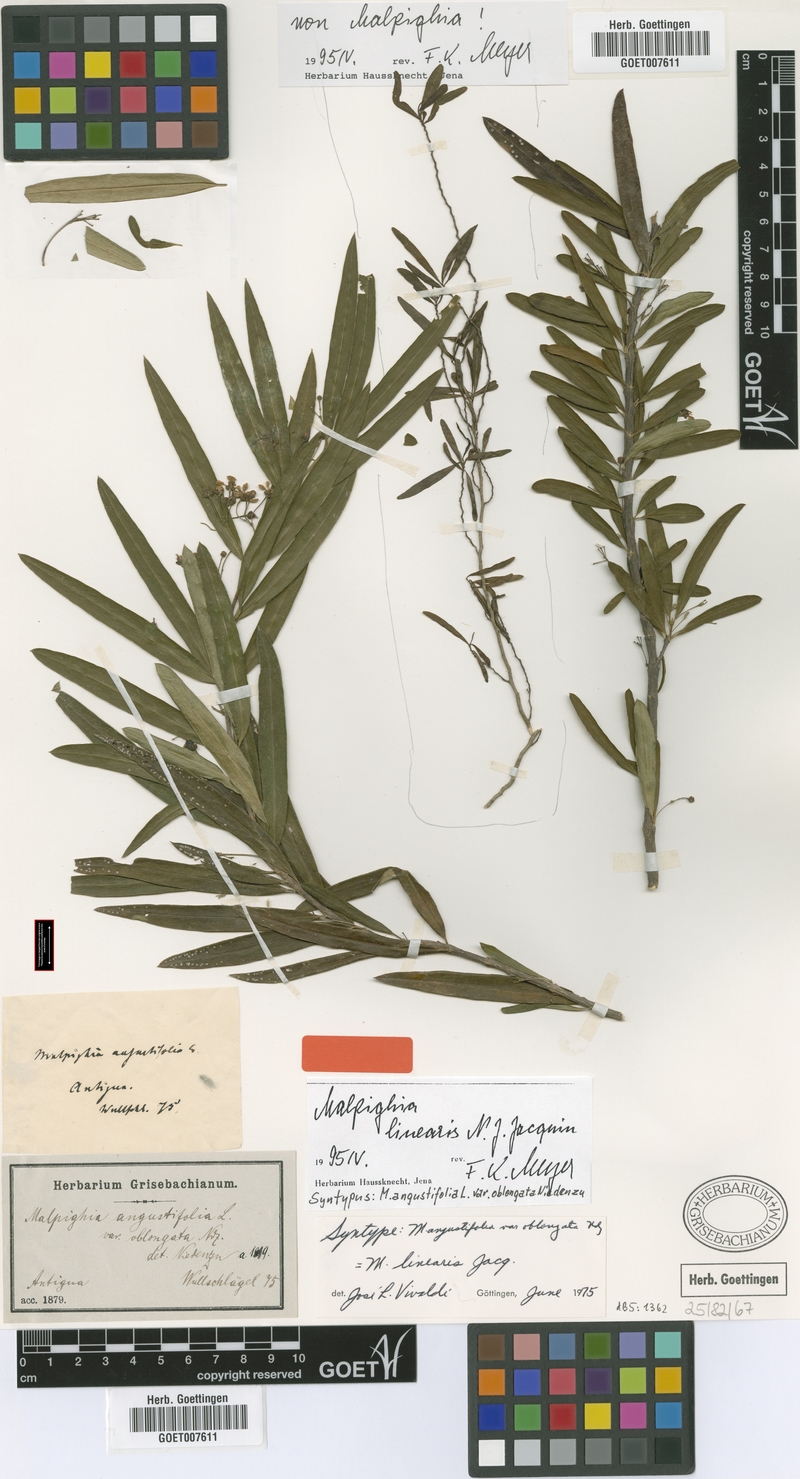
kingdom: Plantae
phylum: Tracheophyta
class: Magnoliopsida
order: Malpighiales
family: Malpighiaceae
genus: Malpighia
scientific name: Malpighia linearis
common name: Bastard cherry
